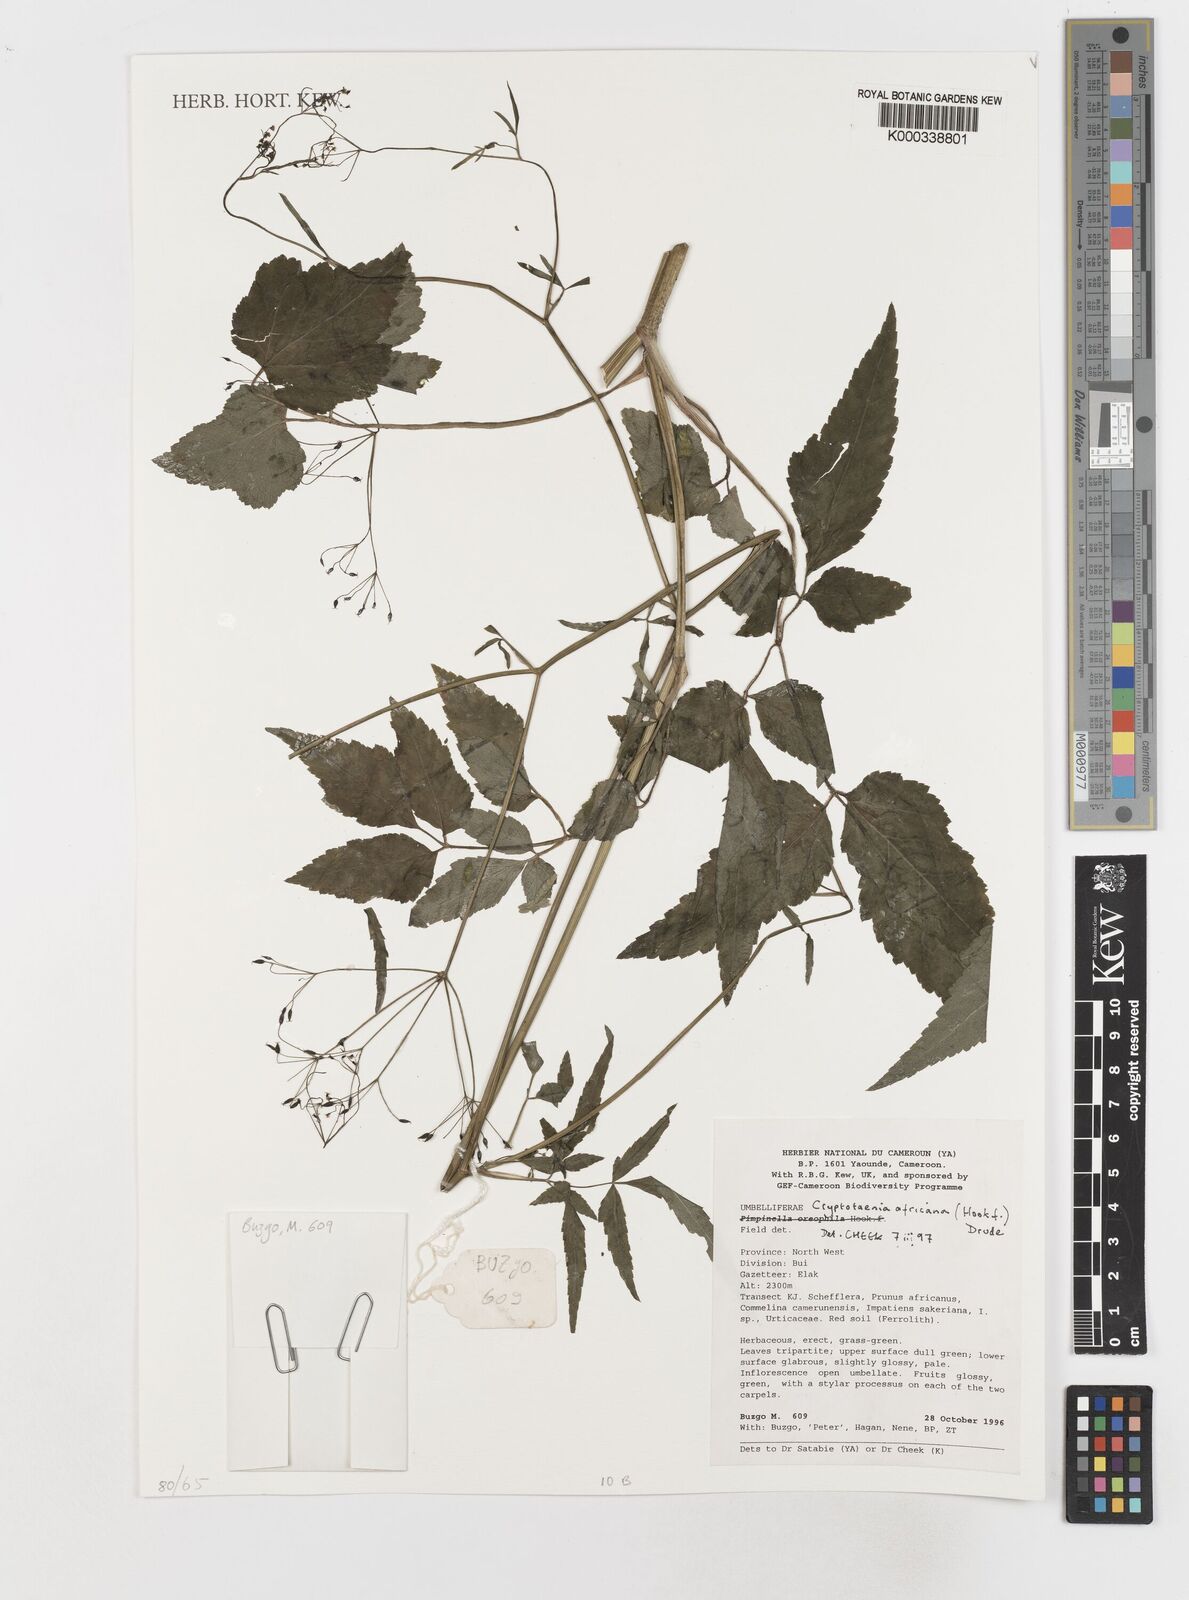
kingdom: Plantae
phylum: Tracheophyta
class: Magnoliopsida
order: Apiales
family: Apiaceae
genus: Cryptotaenia
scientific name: Cryptotaenia africana
